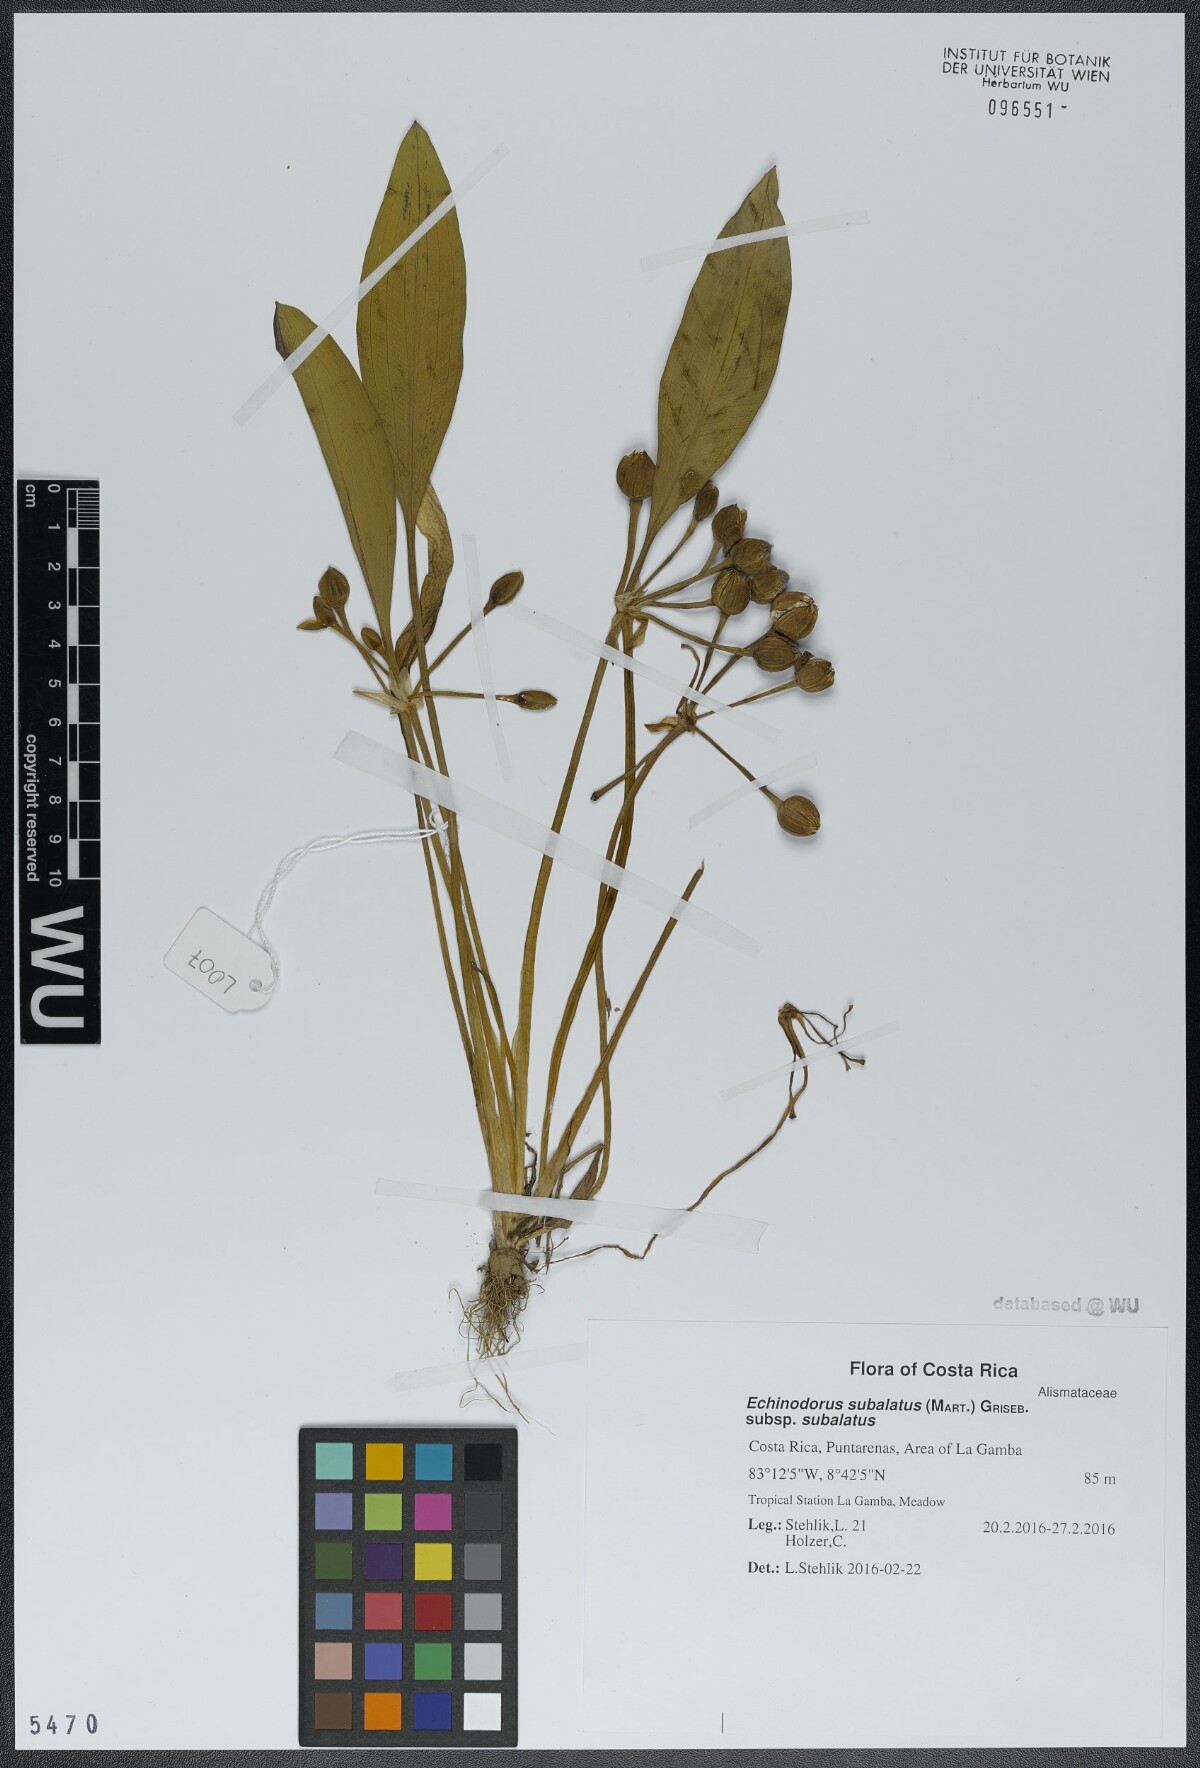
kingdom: Plantae
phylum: Tracheophyta
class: Liliopsida
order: Alismatales
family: Alismataceae
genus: Aquarius
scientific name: Aquarius subulatus
